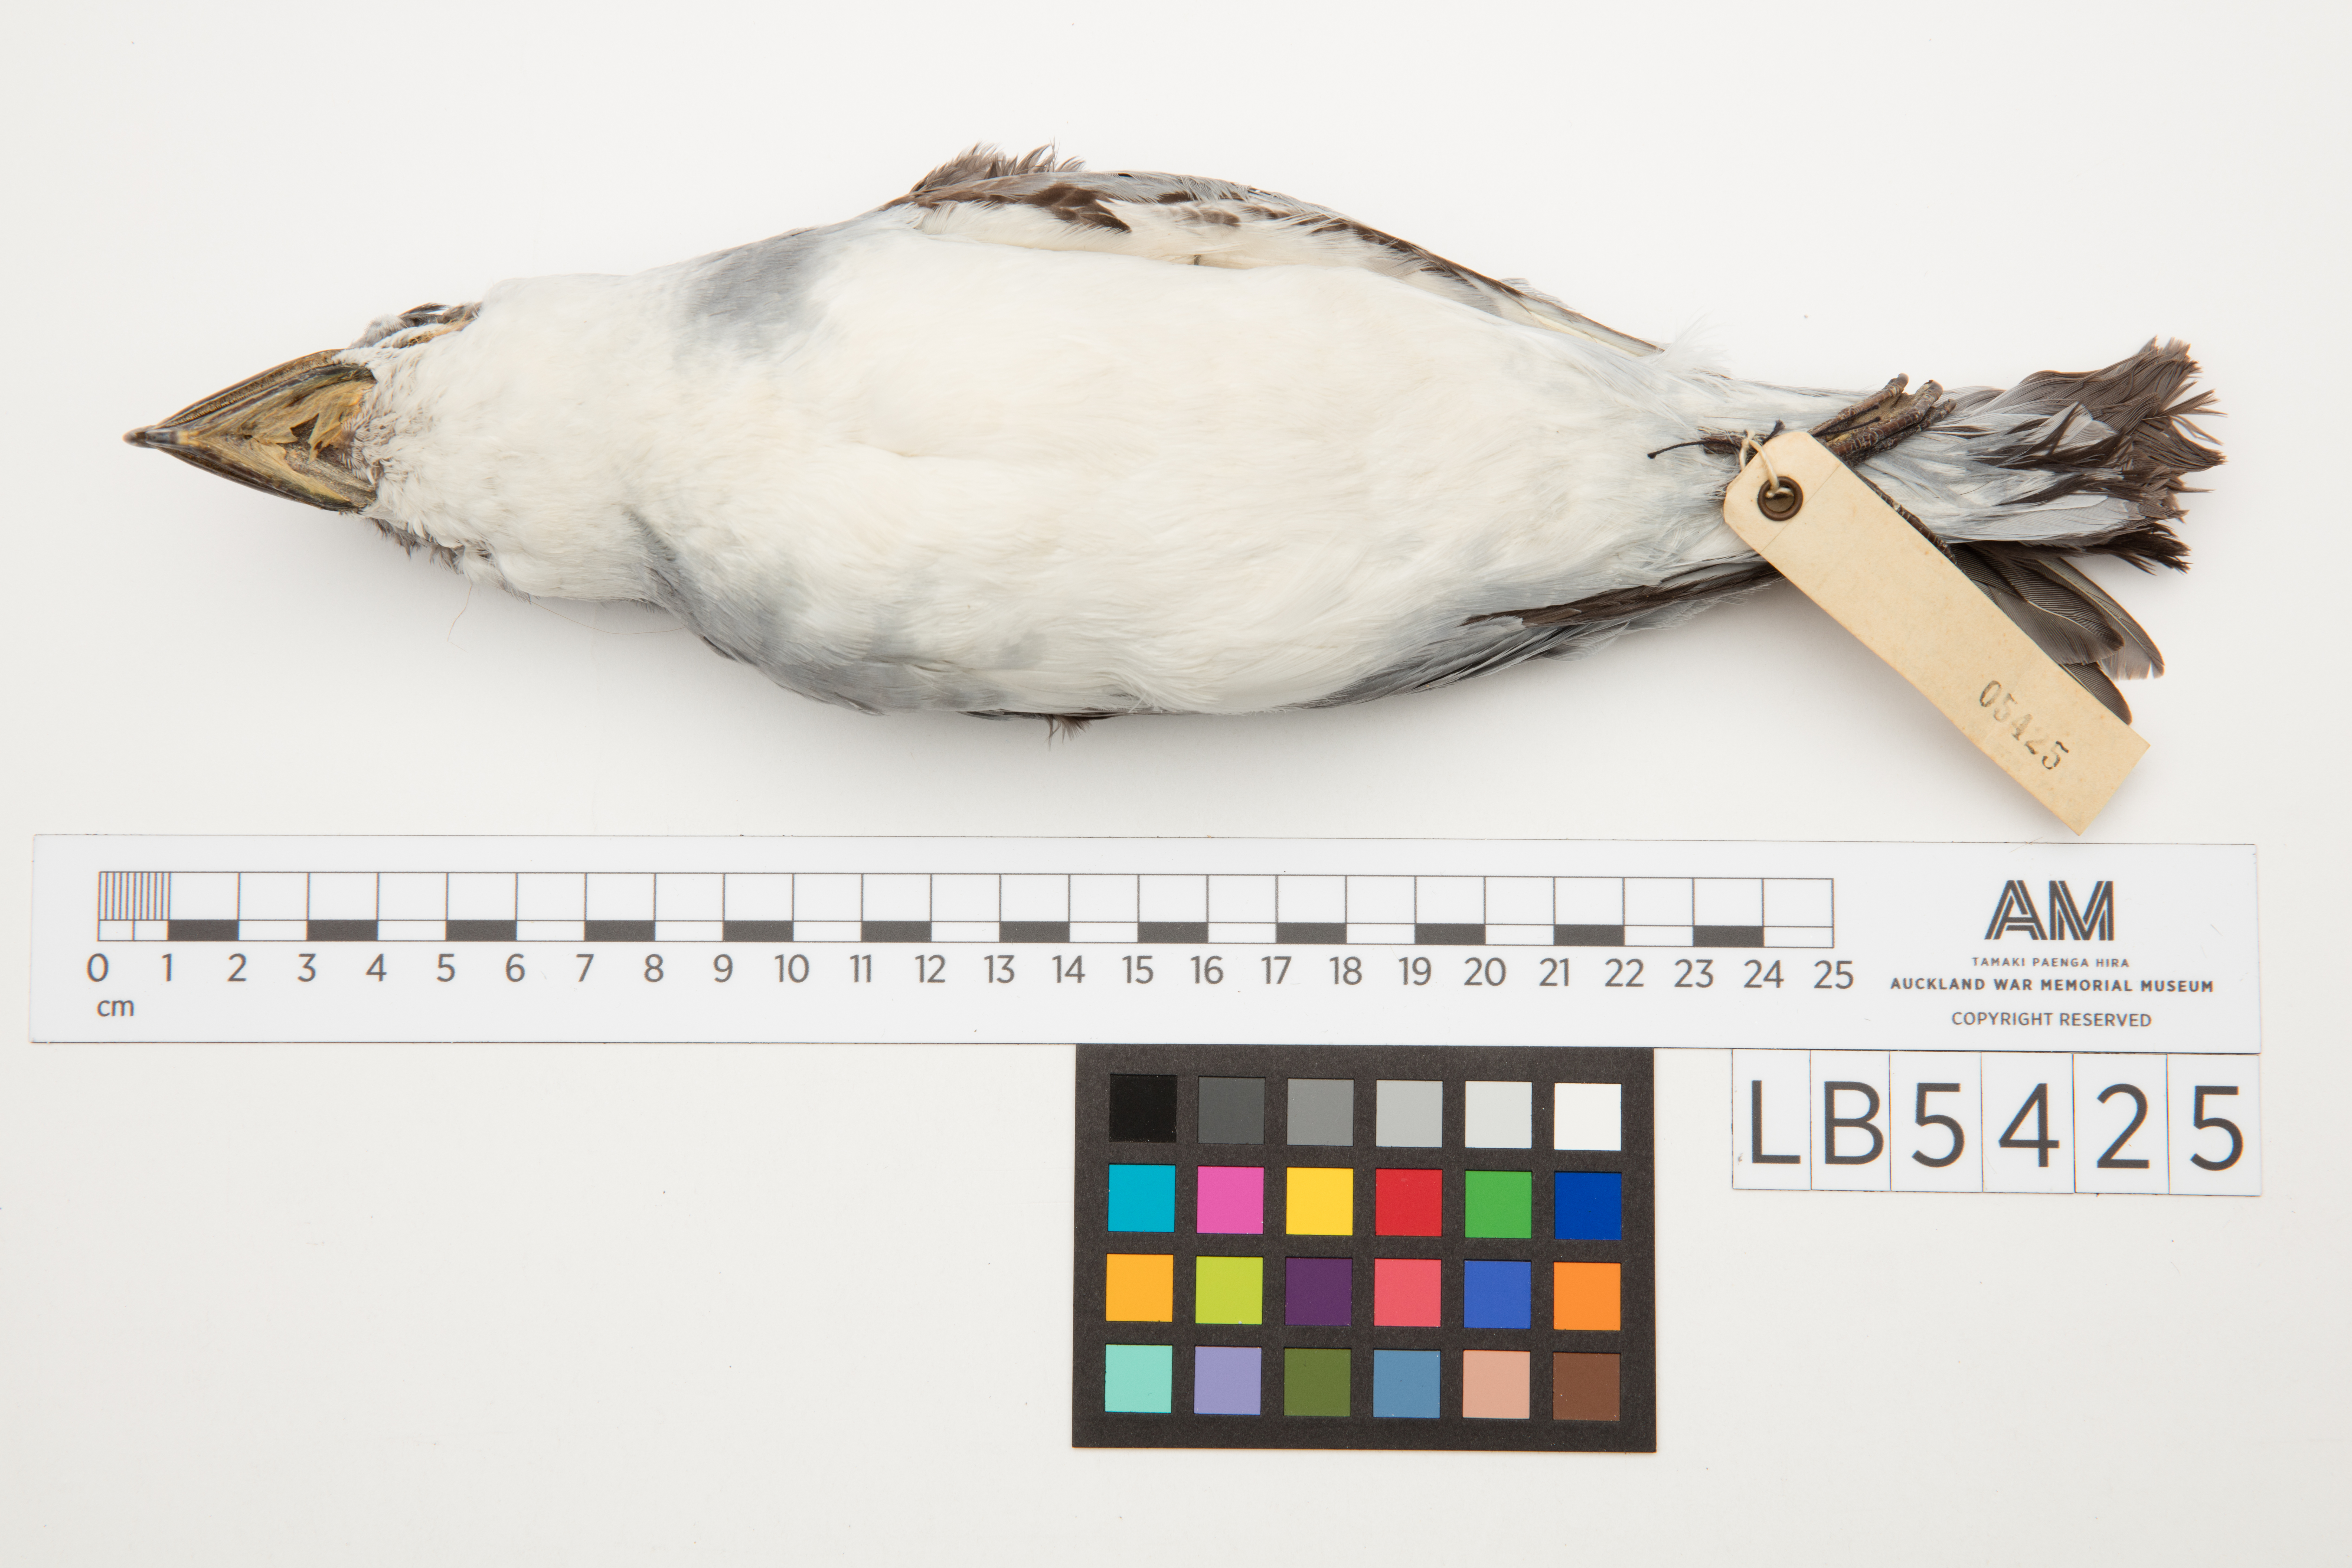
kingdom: Animalia
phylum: Chordata
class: Aves
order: Procellariiformes
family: Procellariidae
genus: Pachyptila
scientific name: Pachyptila vittata
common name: Broad-billed prion
